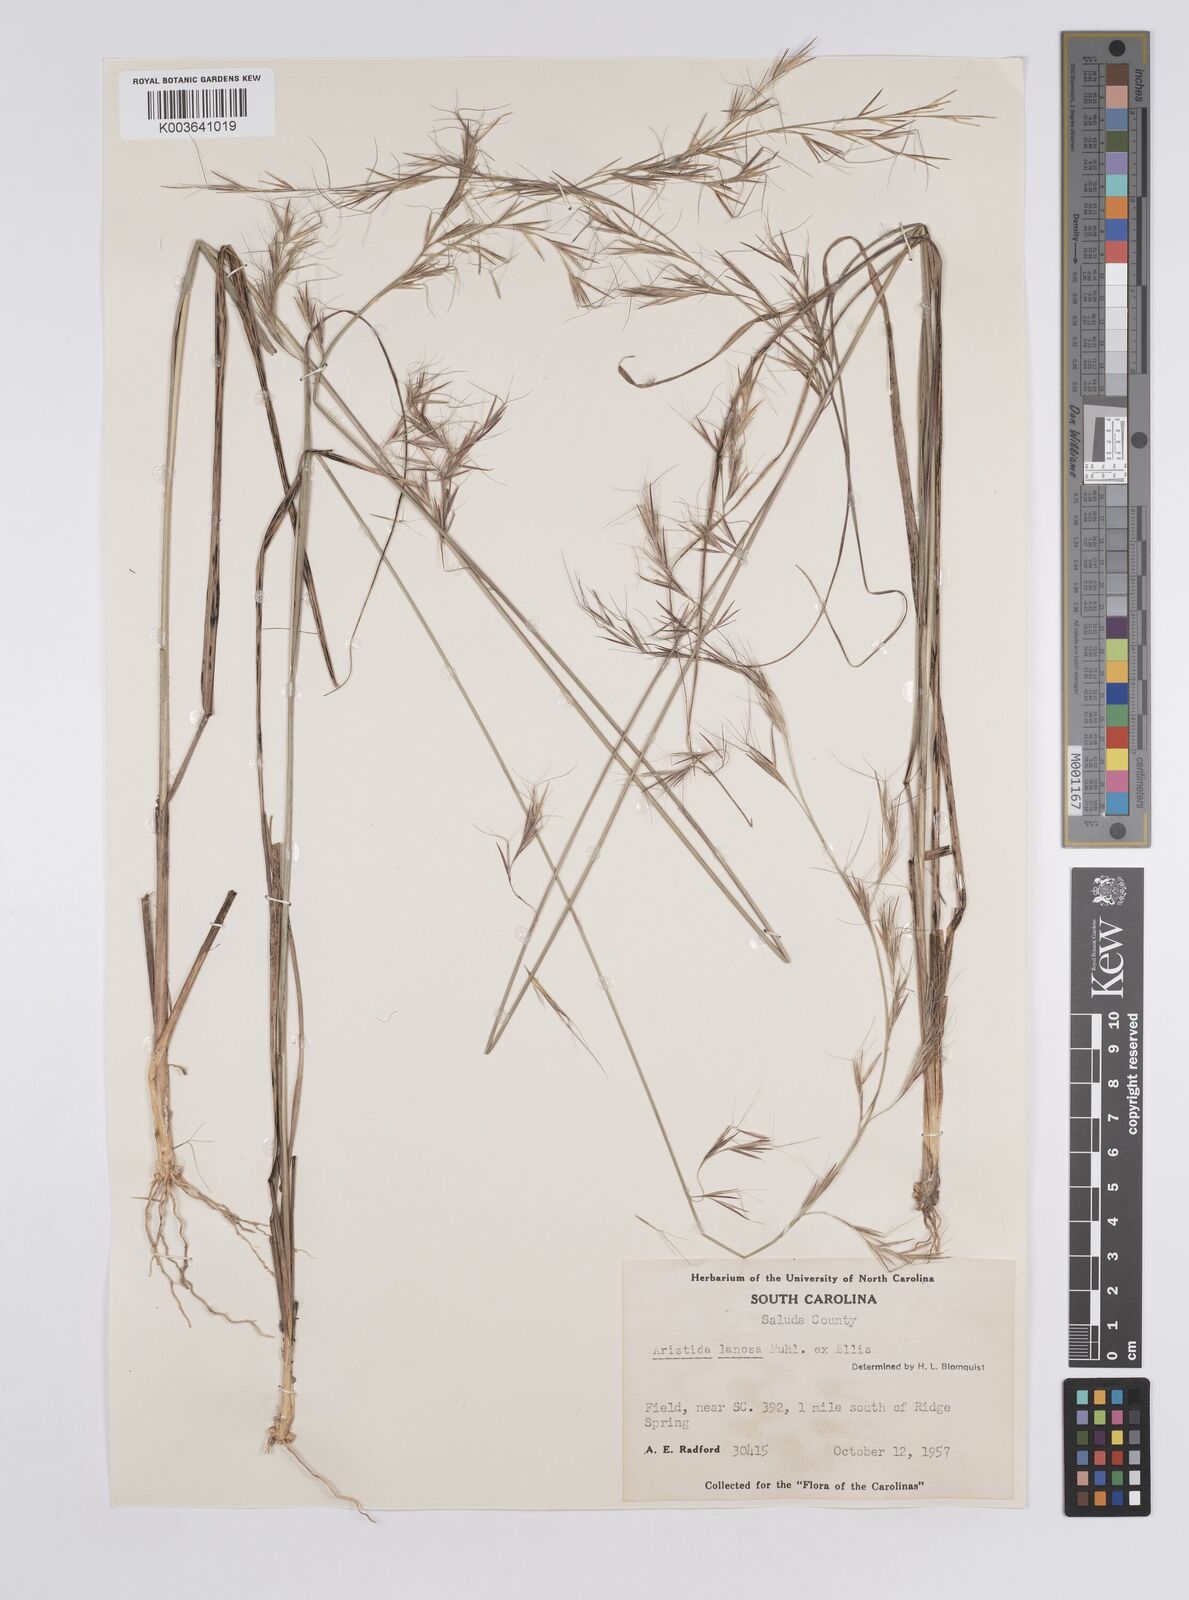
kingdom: Plantae
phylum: Tracheophyta
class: Liliopsida
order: Poales
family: Poaceae
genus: Aristida
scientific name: Aristida lanosa
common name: Woolly three-awn
